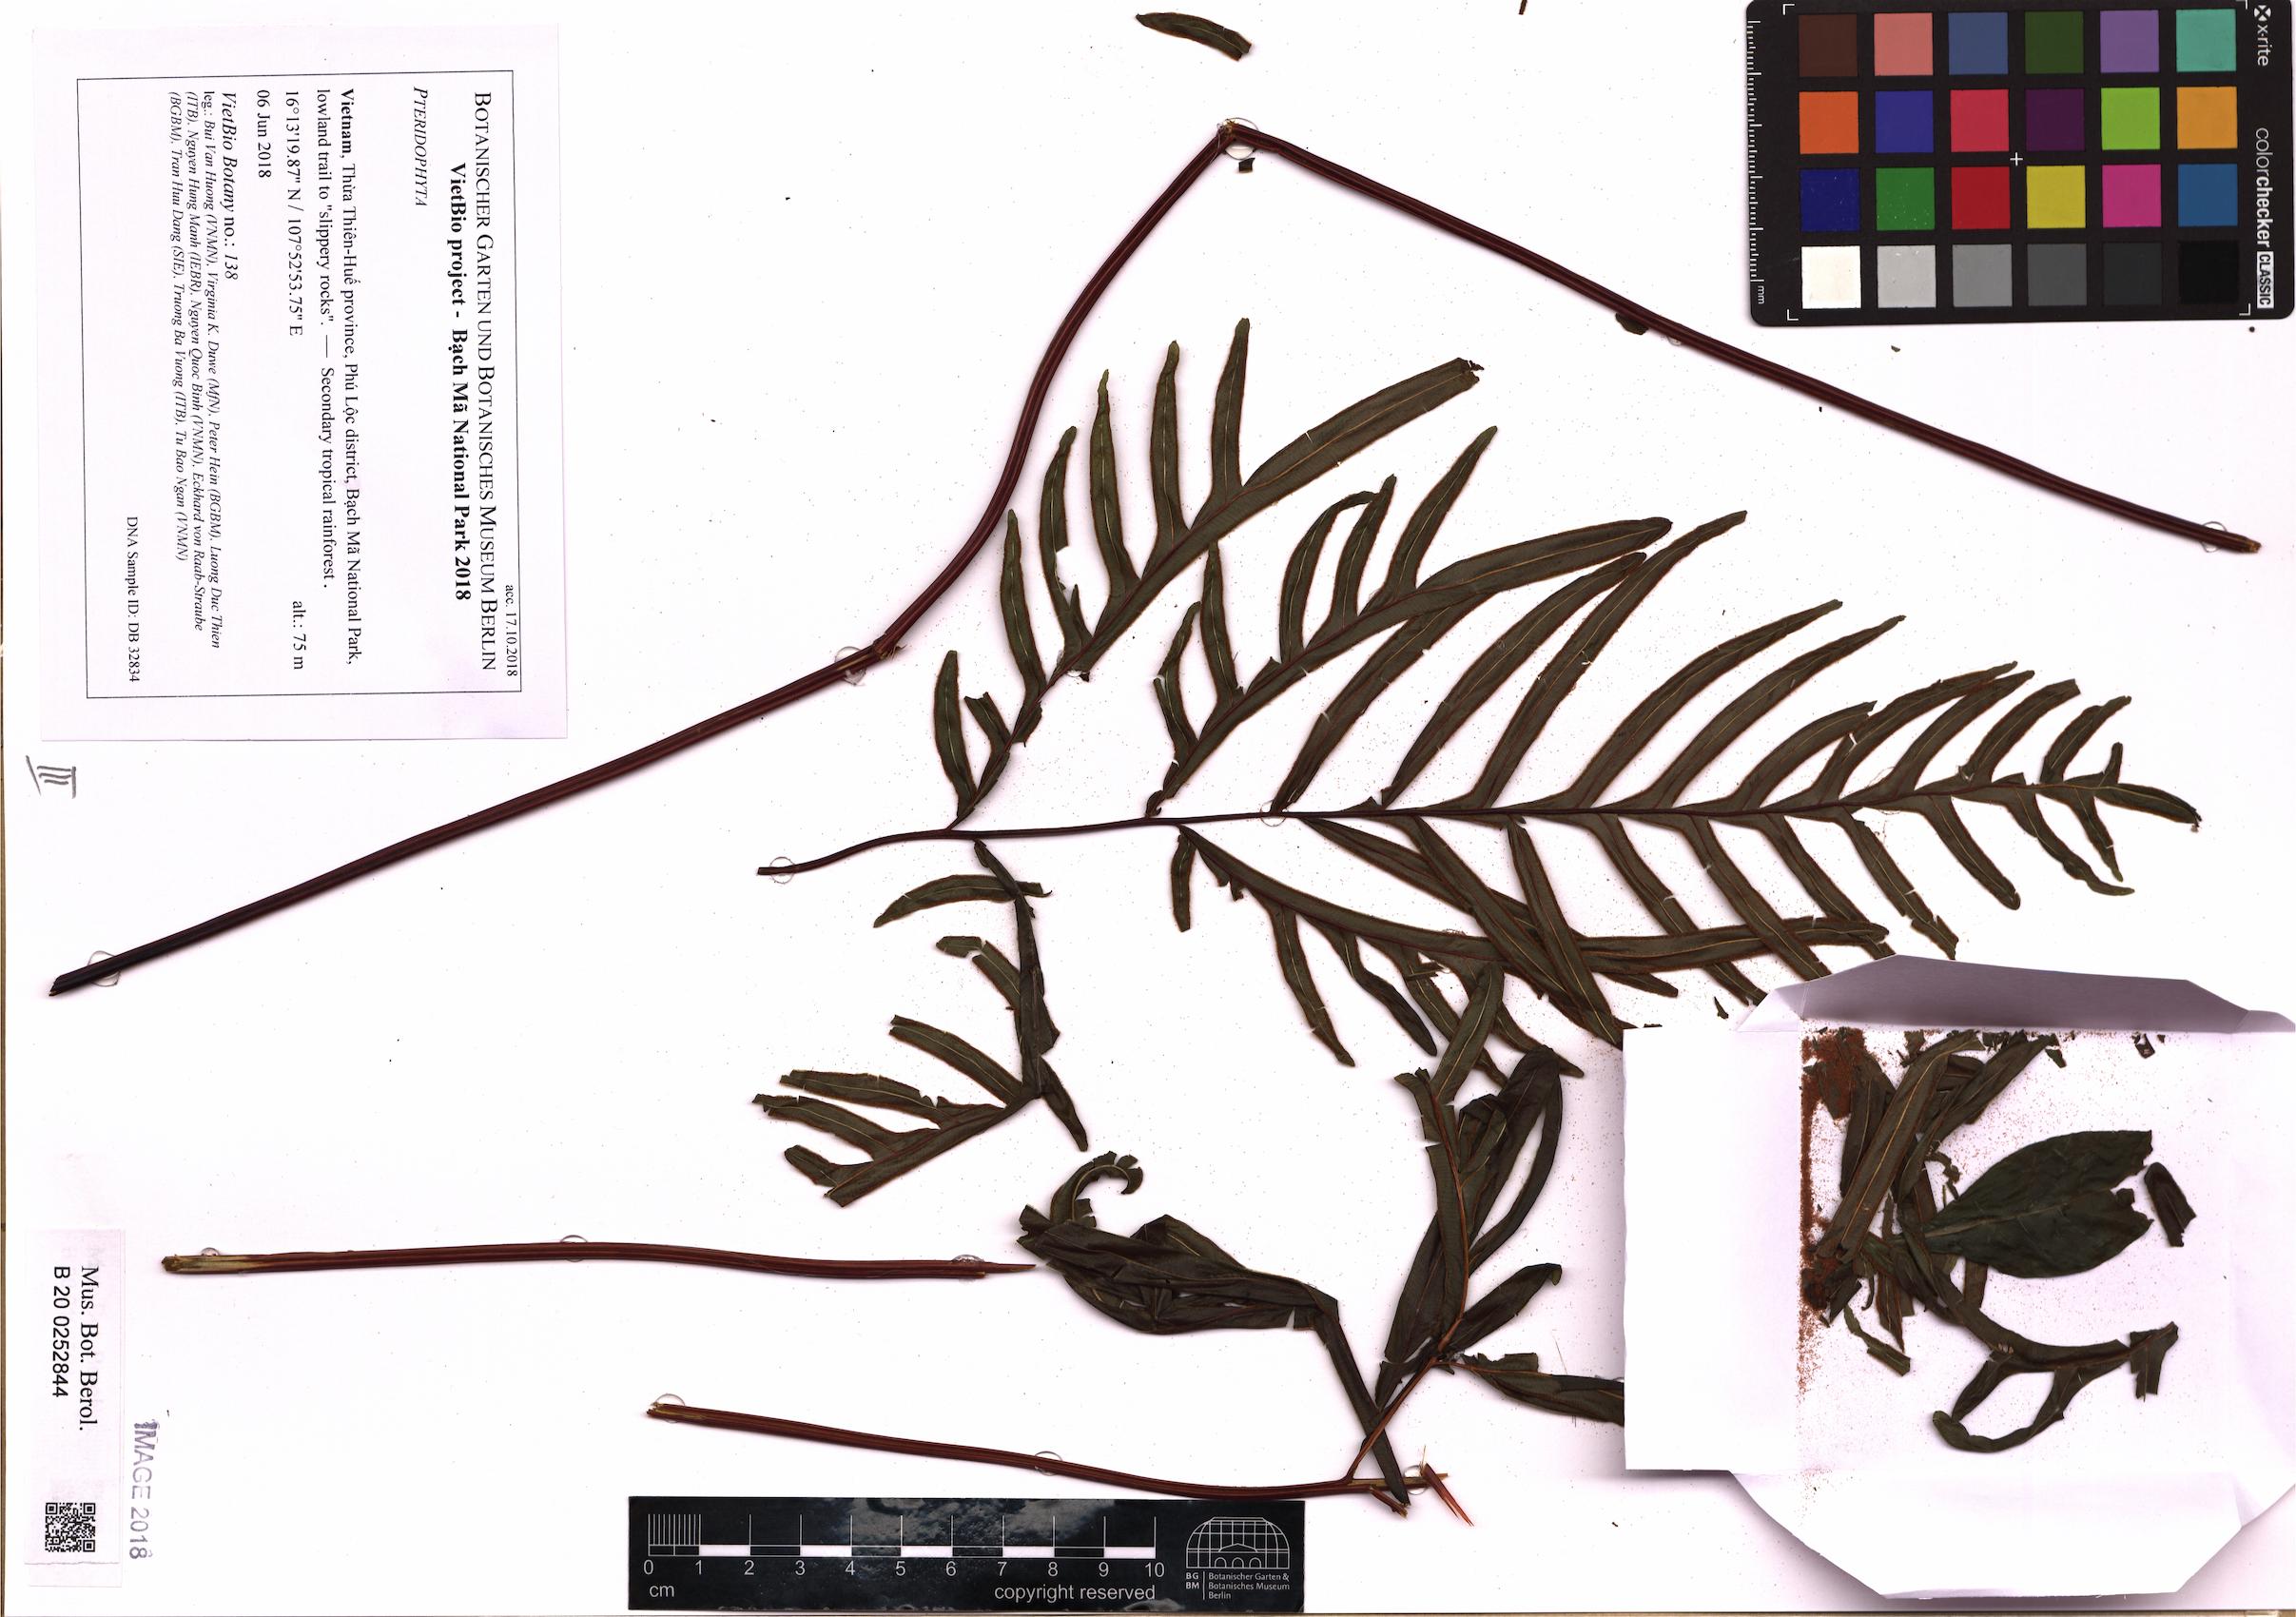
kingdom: Plantae
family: Pteridophyta
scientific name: Pteridophyta
